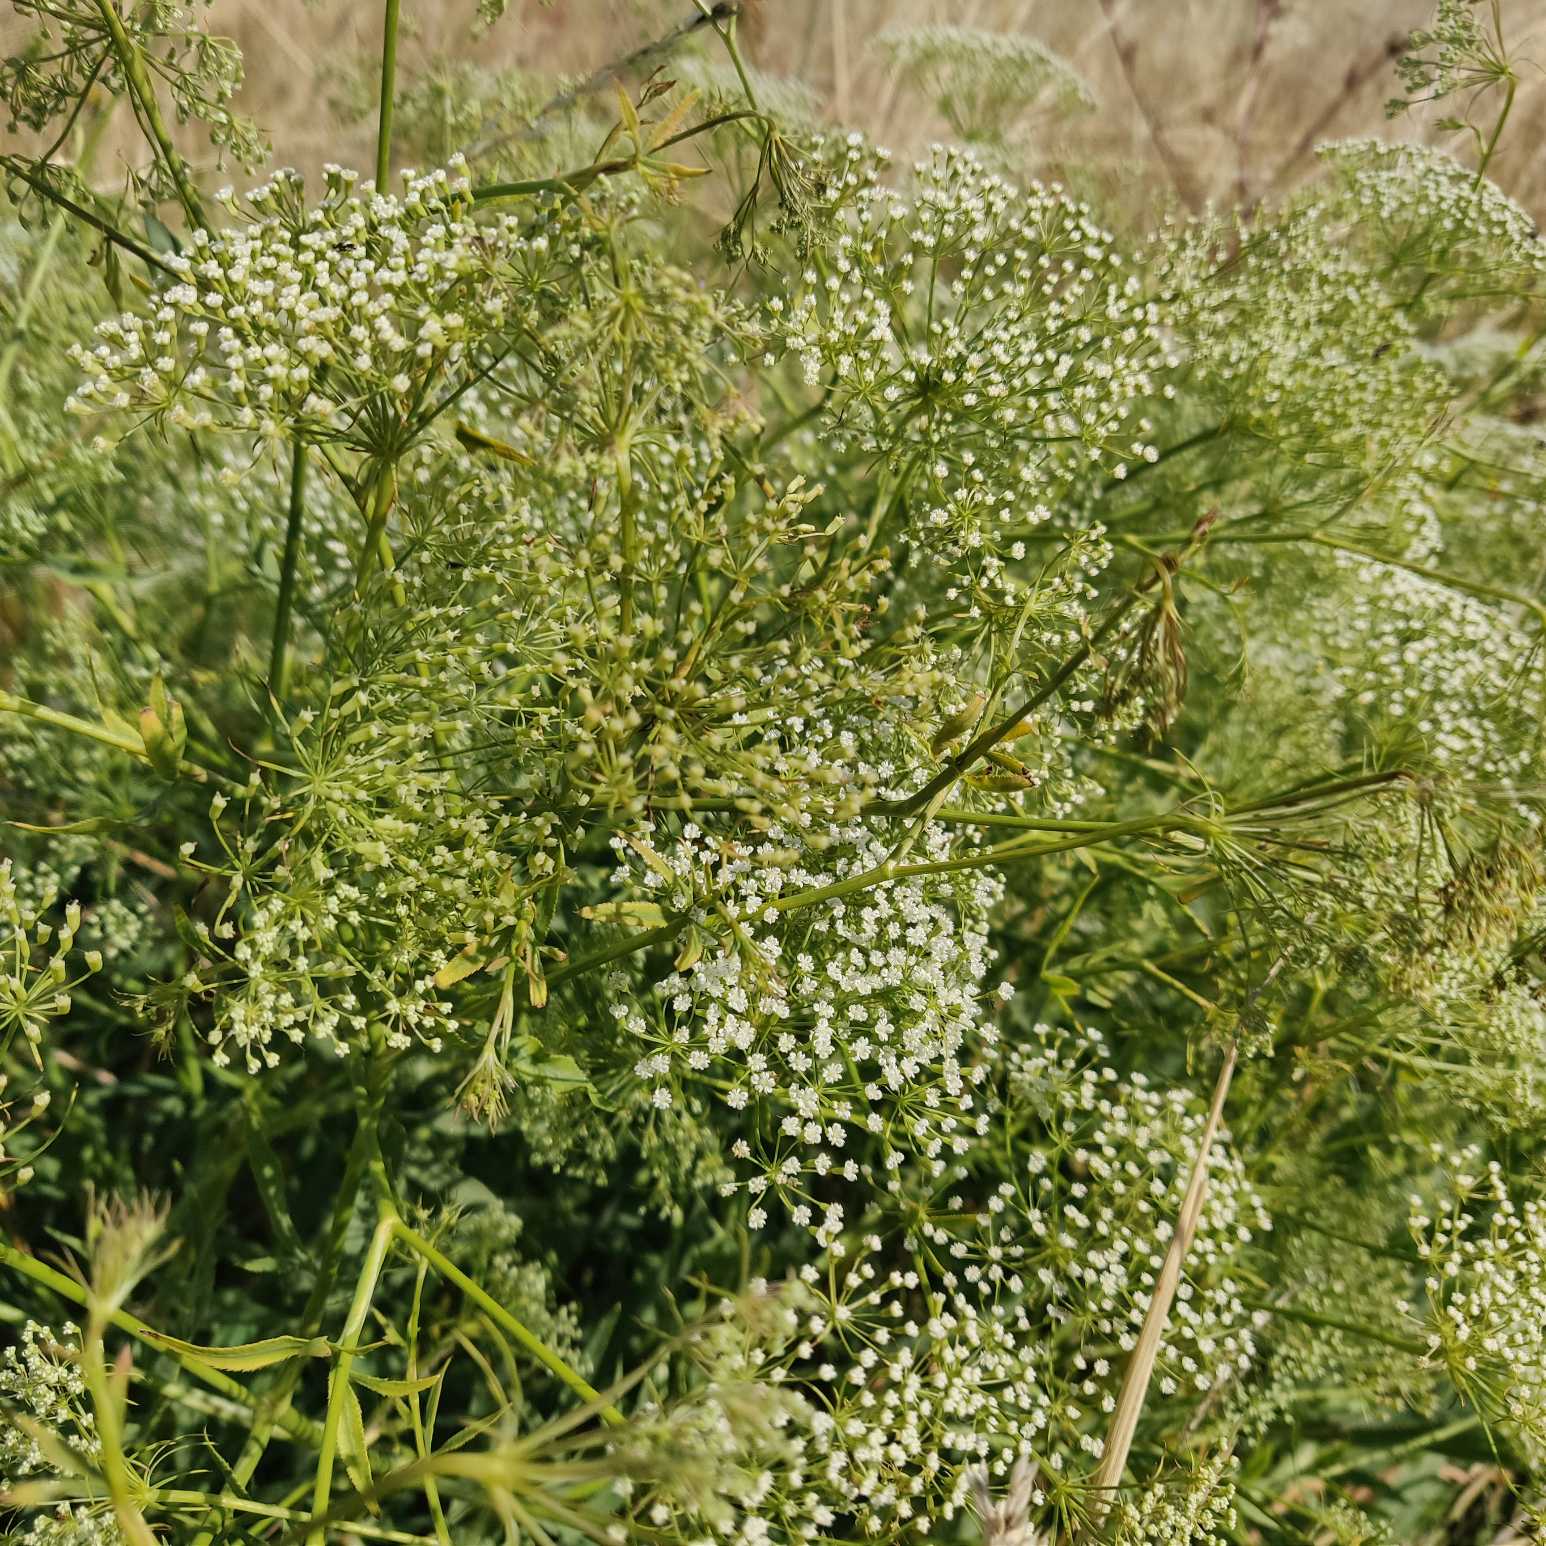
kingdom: Plantae
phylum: Tracheophyta
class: Magnoliopsida
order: Apiales
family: Apiaceae
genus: Falcaria
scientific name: Falcaria vulgaris
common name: Seglblad
